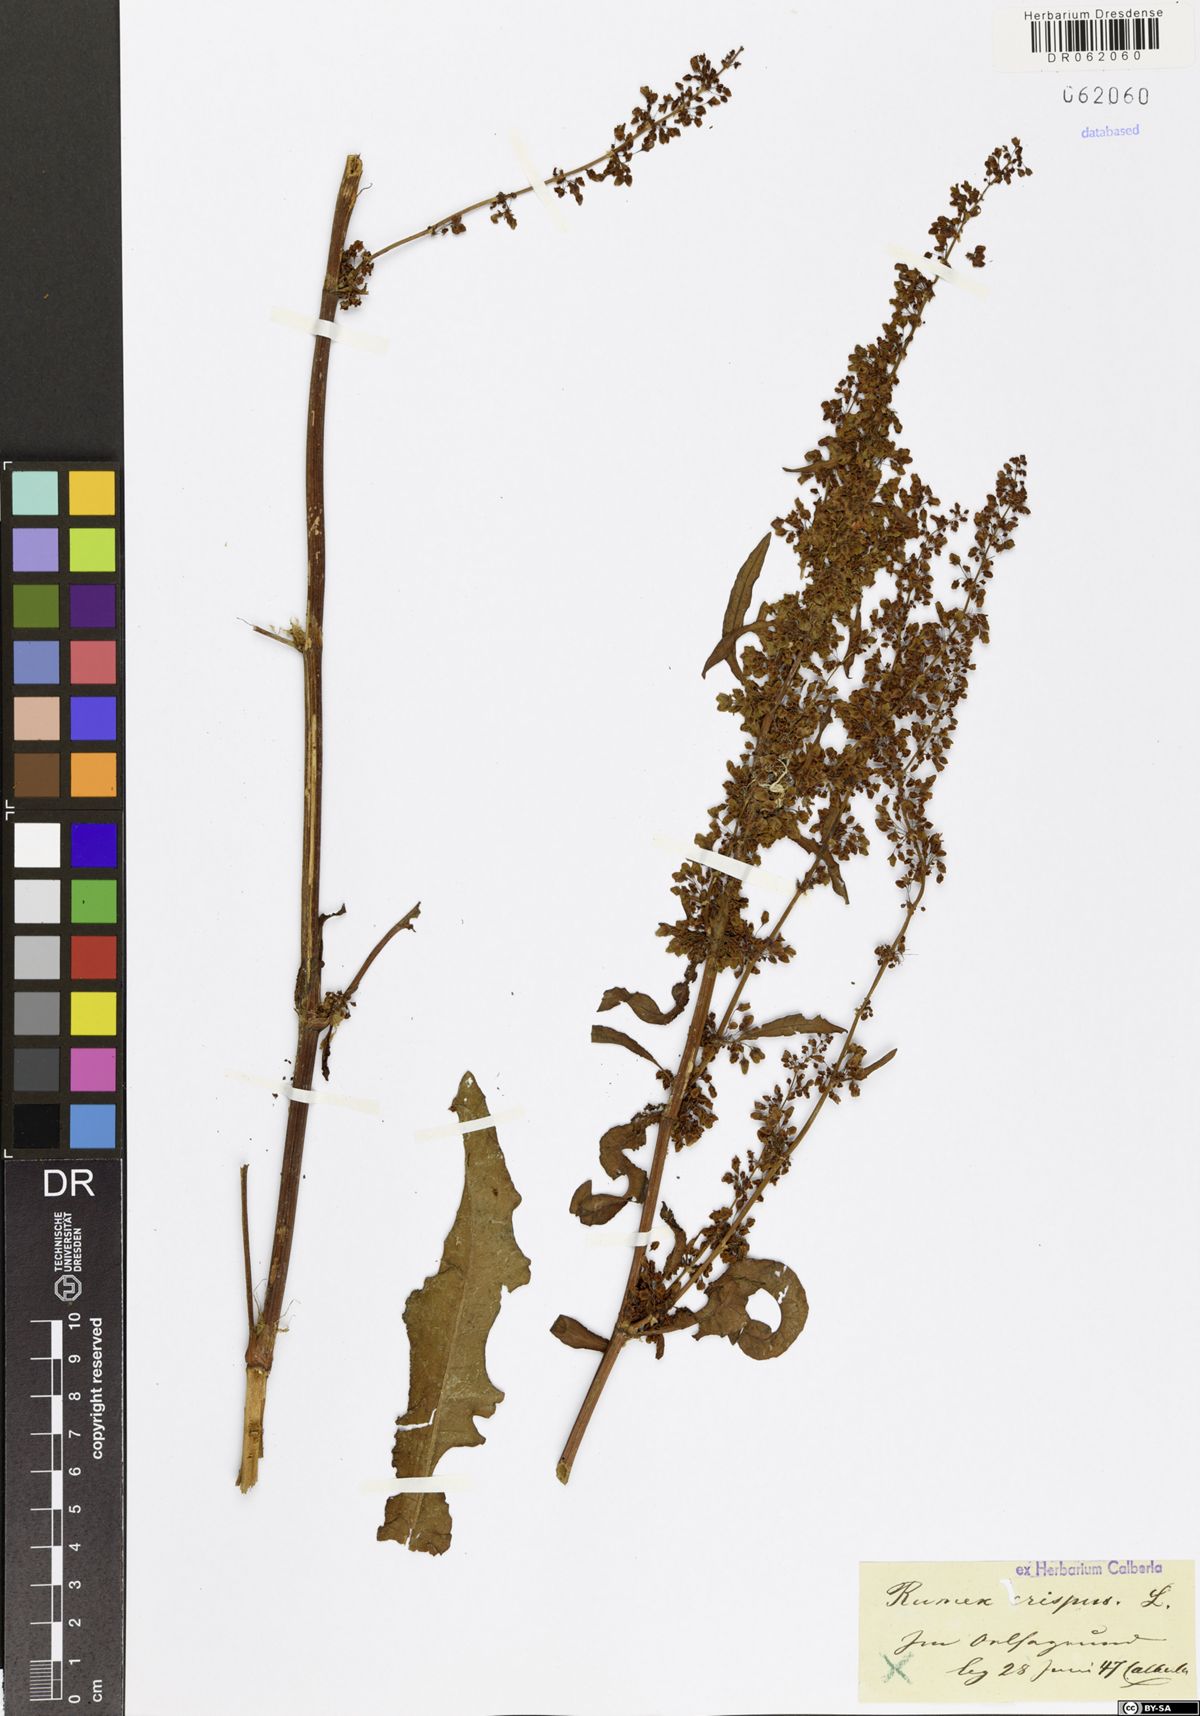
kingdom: Plantae
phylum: Tracheophyta
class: Magnoliopsida
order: Caryophyllales
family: Polygonaceae
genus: Rumex
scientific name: Rumex crispus
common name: Curled dock
